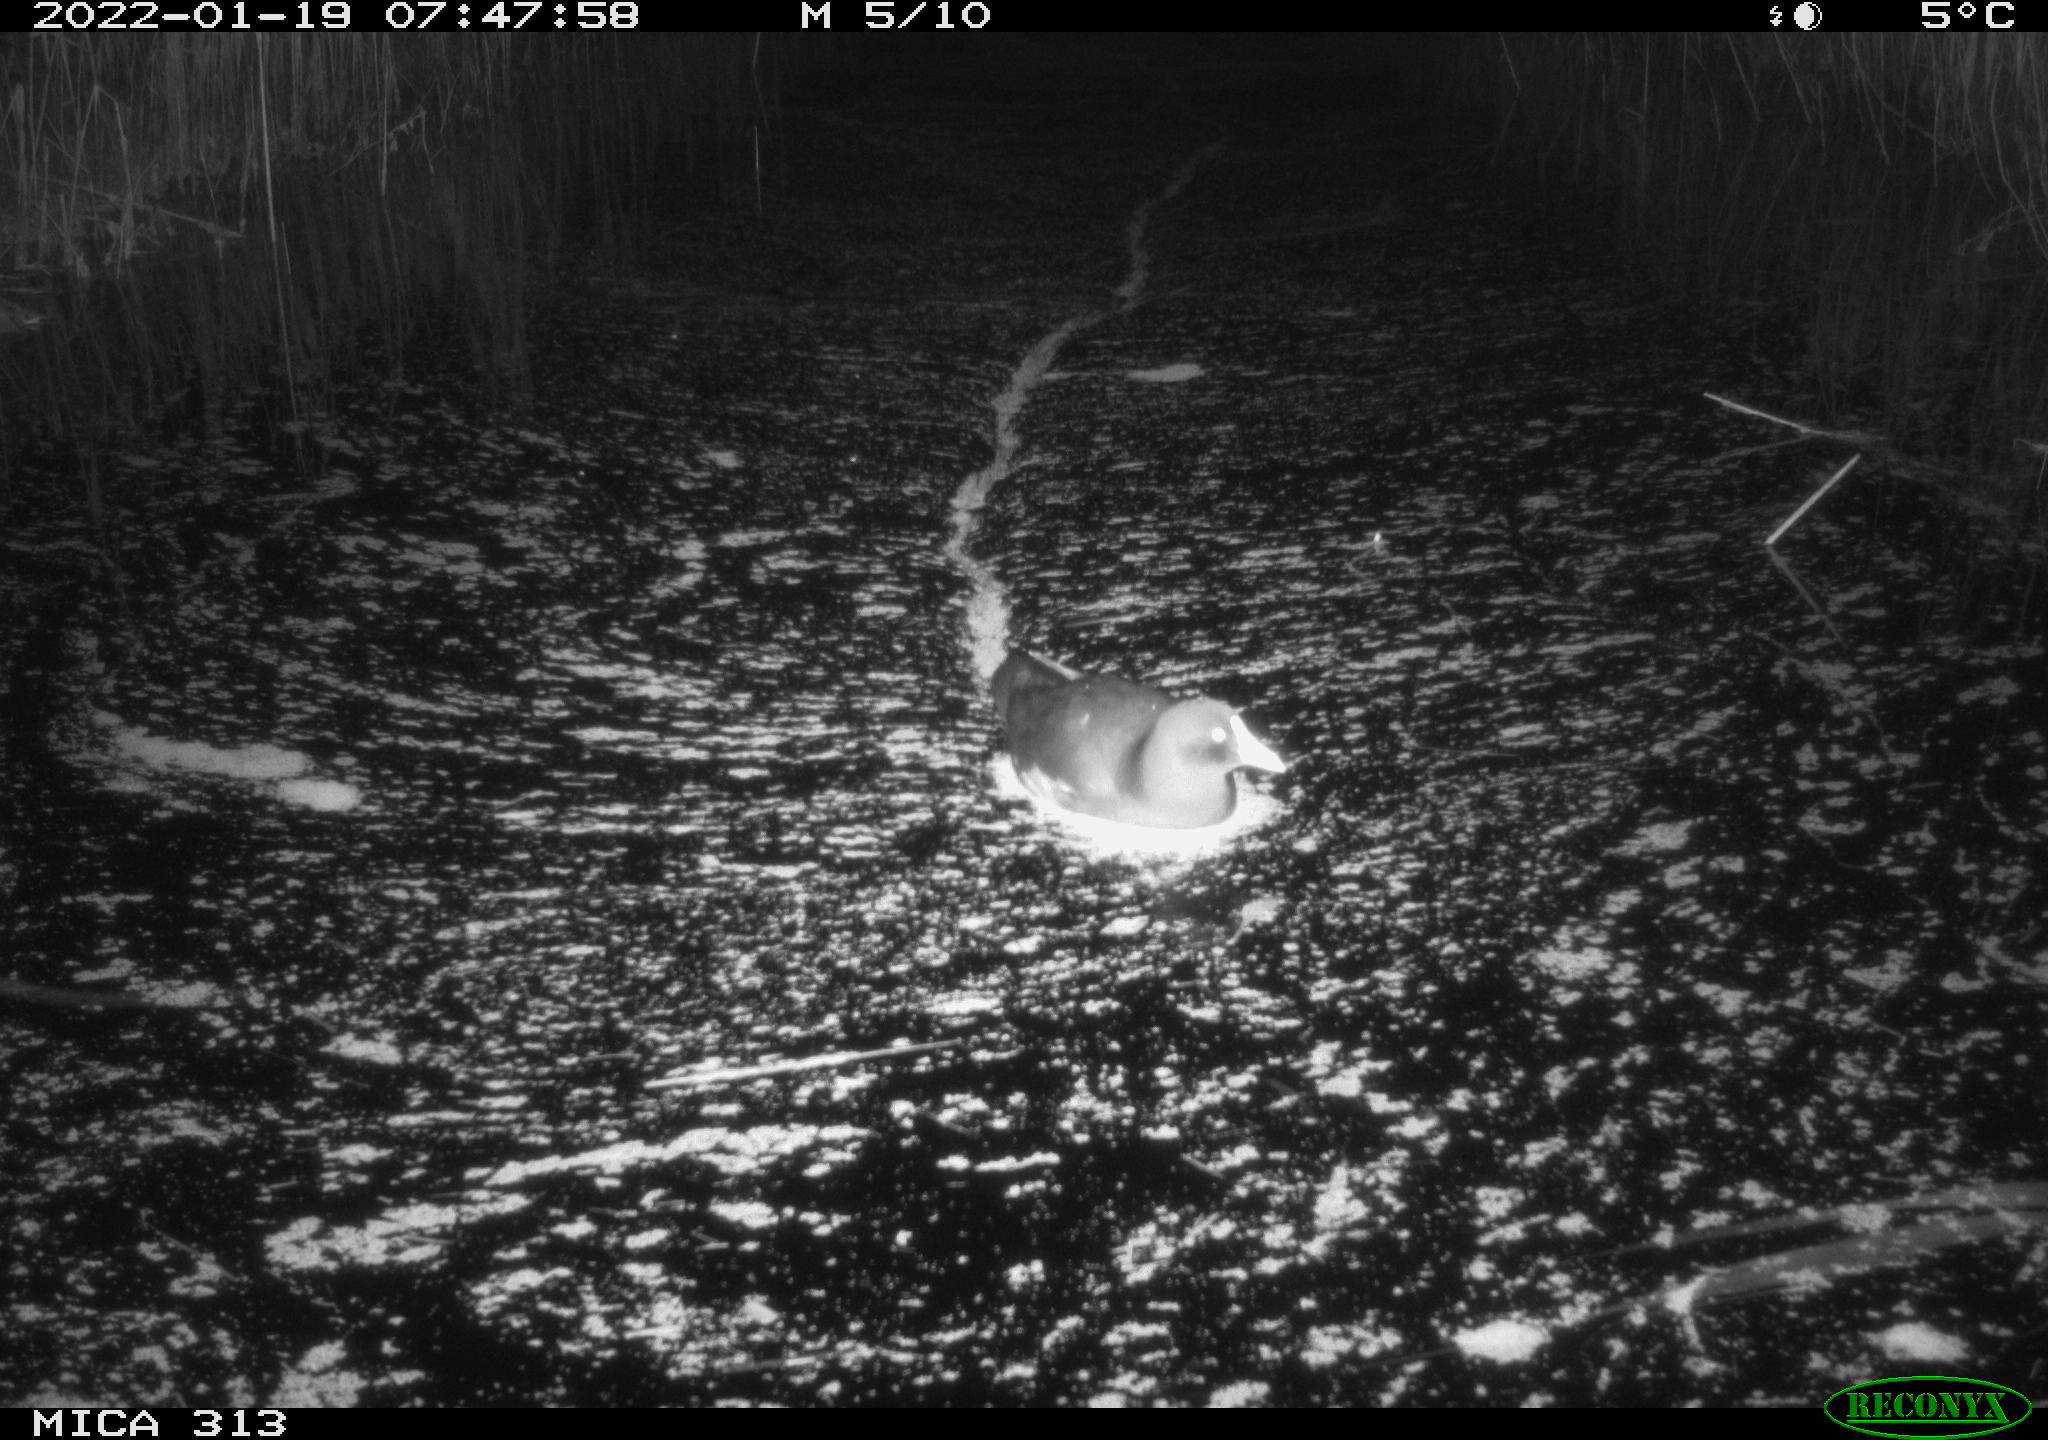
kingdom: Animalia
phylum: Chordata
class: Aves
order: Gruiformes
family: Rallidae
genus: Fulica
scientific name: Fulica atra
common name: Eurasian coot
